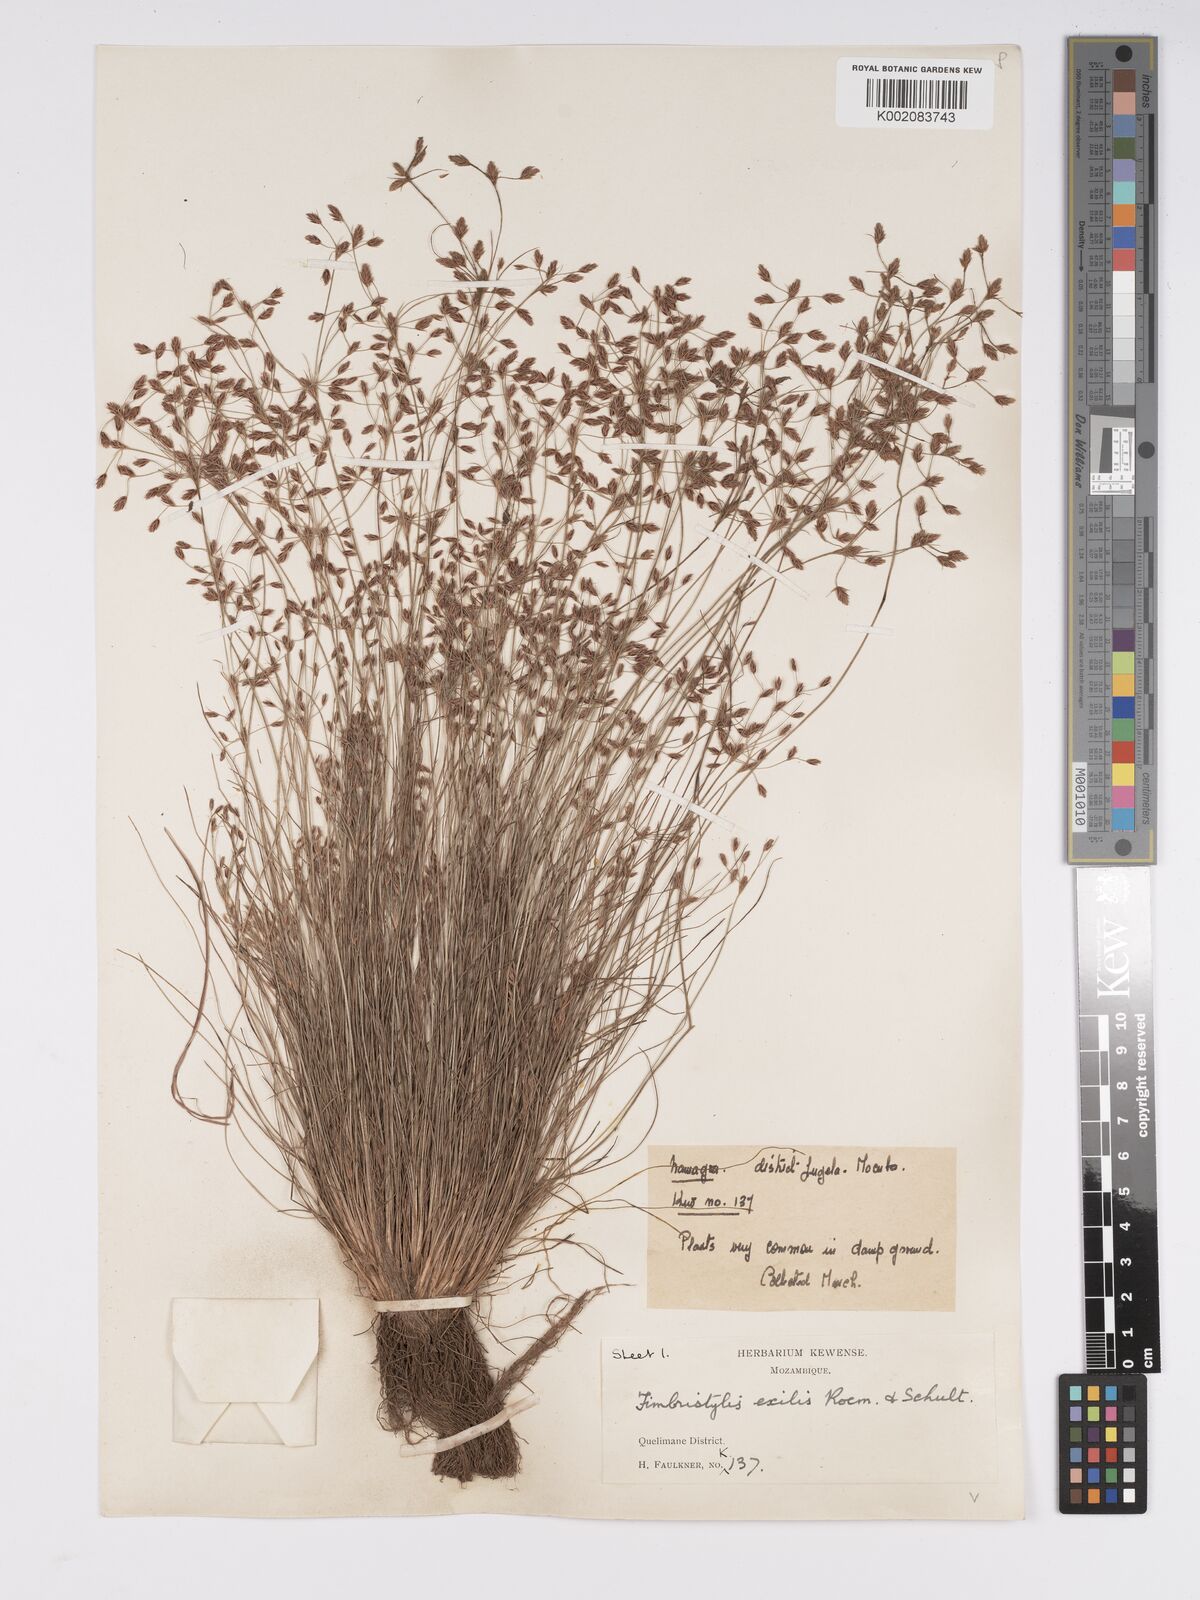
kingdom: Plantae
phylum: Tracheophyta
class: Liliopsida
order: Poales
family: Cyperaceae
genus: Bulbostylis
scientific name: Bulbostylis hispidula
